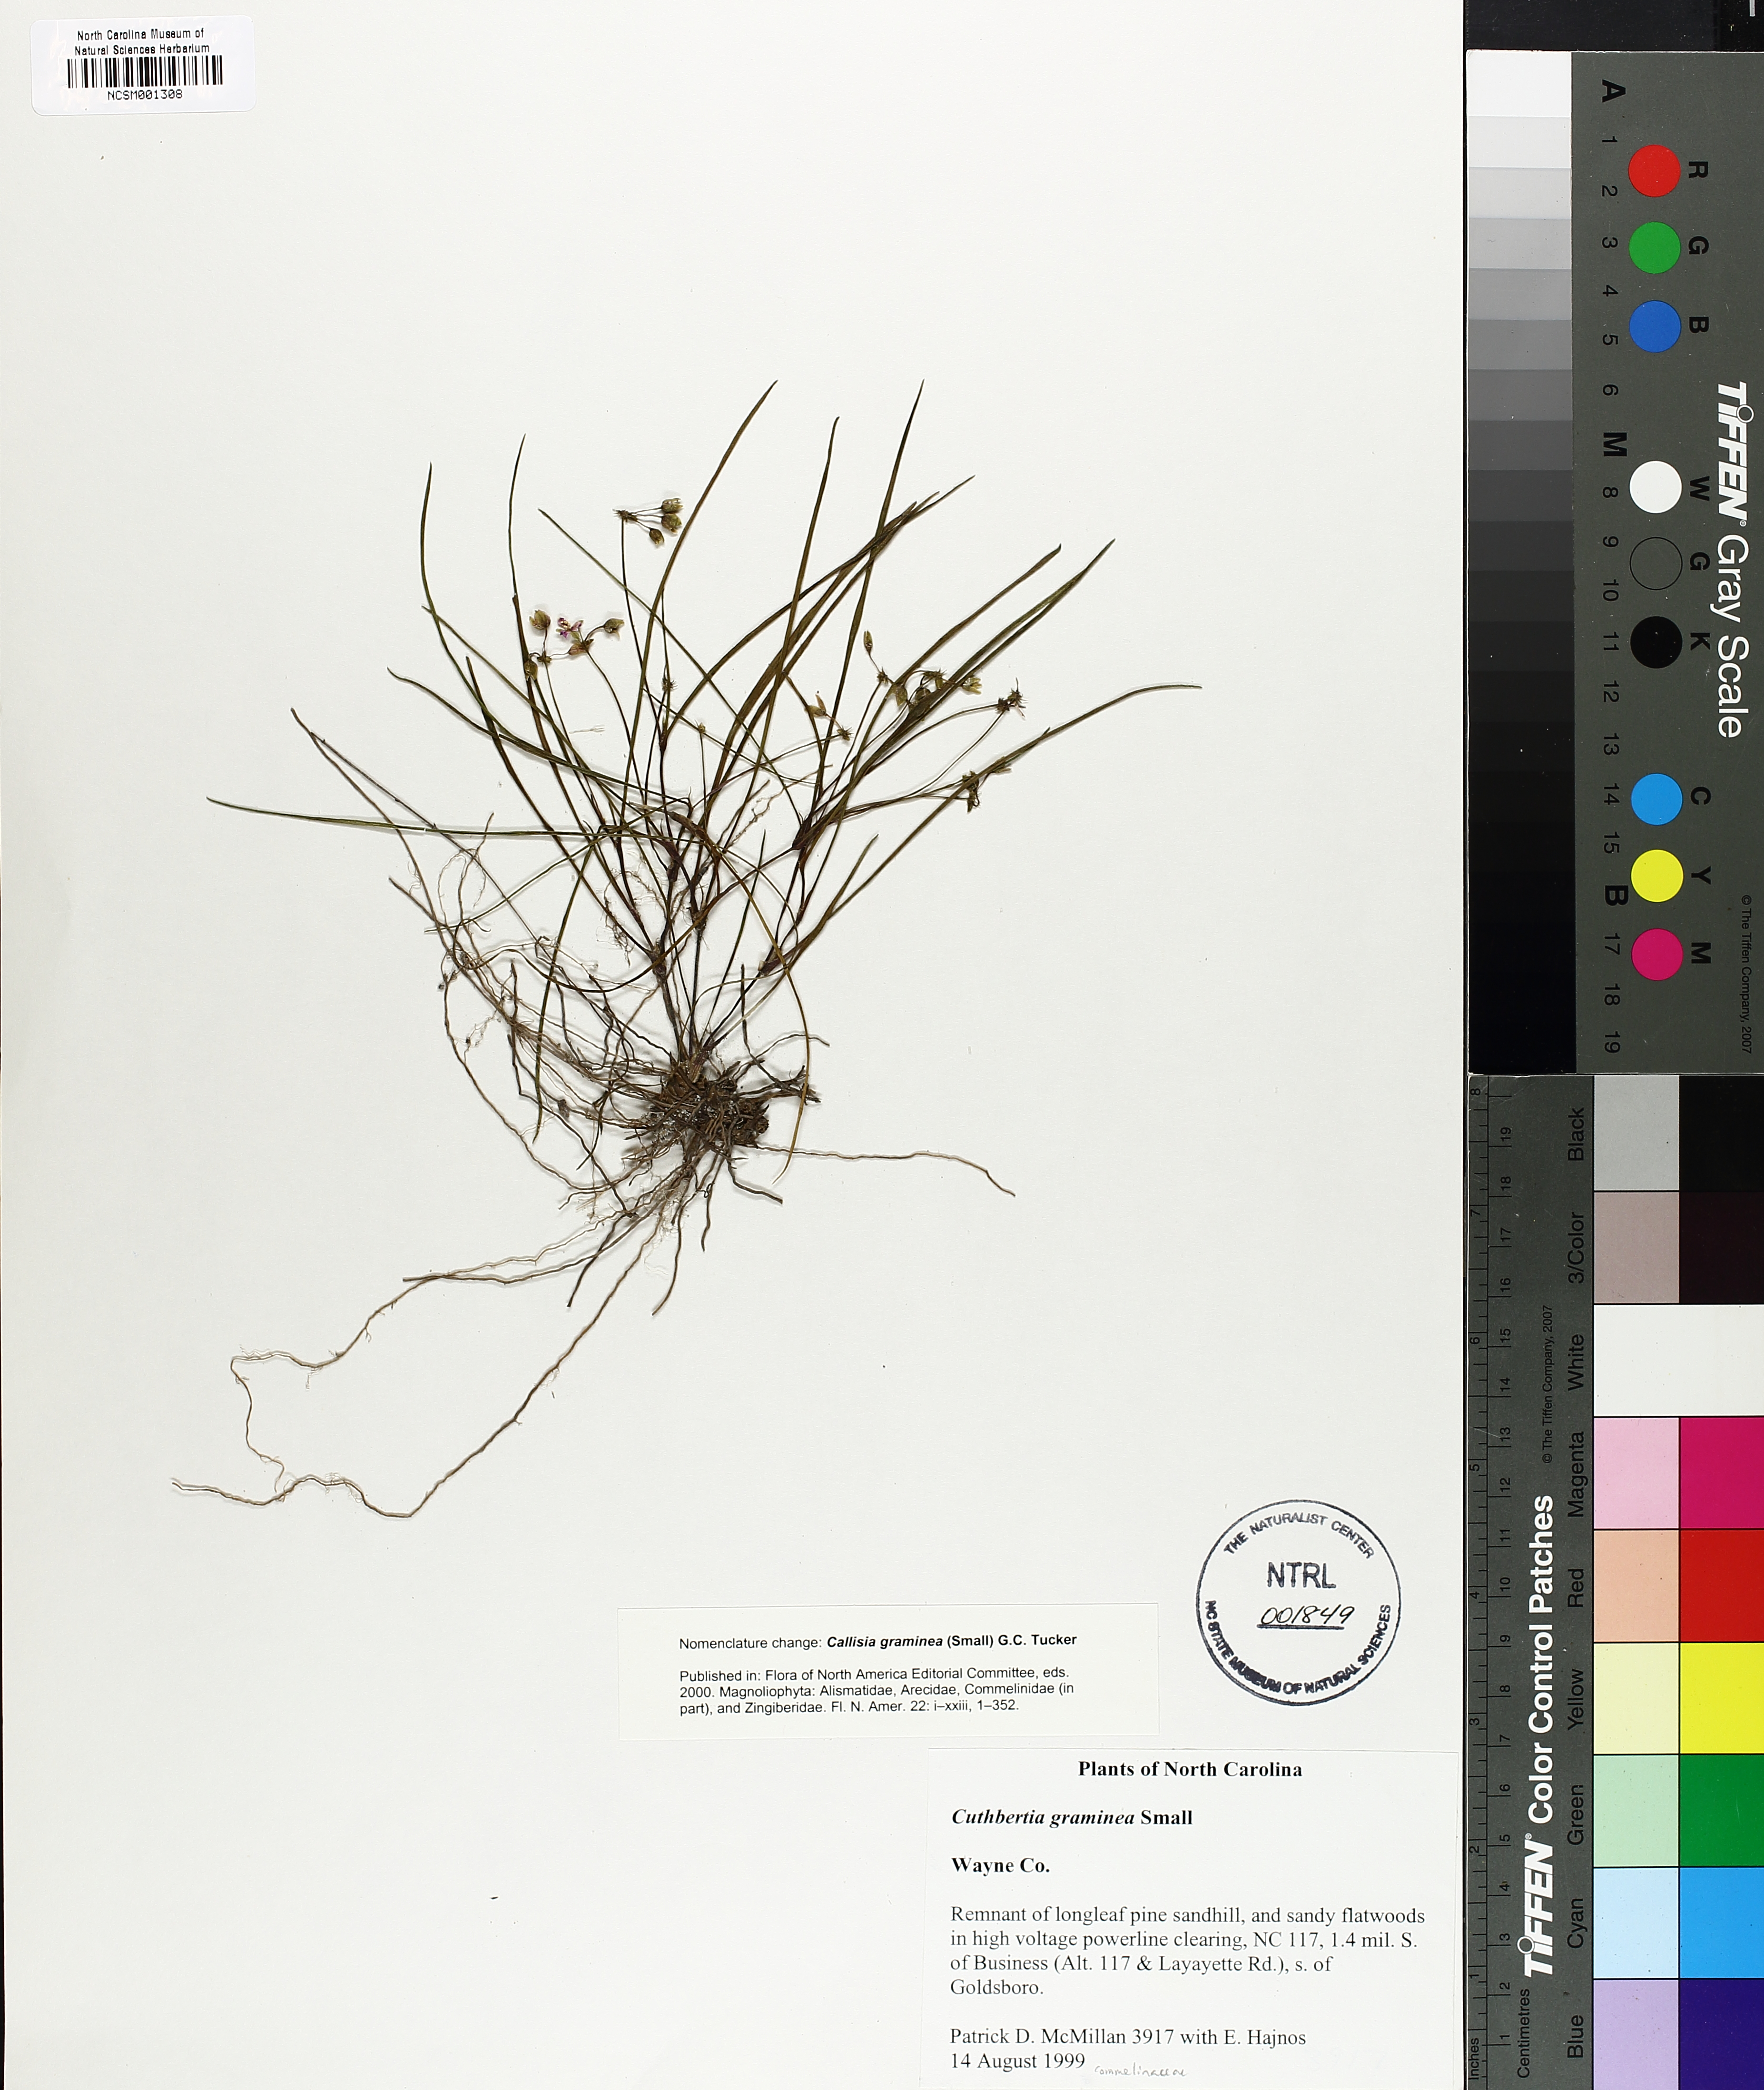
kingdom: Plantae
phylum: Tracheophyta
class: Liliopsida
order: Commelinales
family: Commelinaceae
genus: Callisia
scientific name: Callisia graminea
